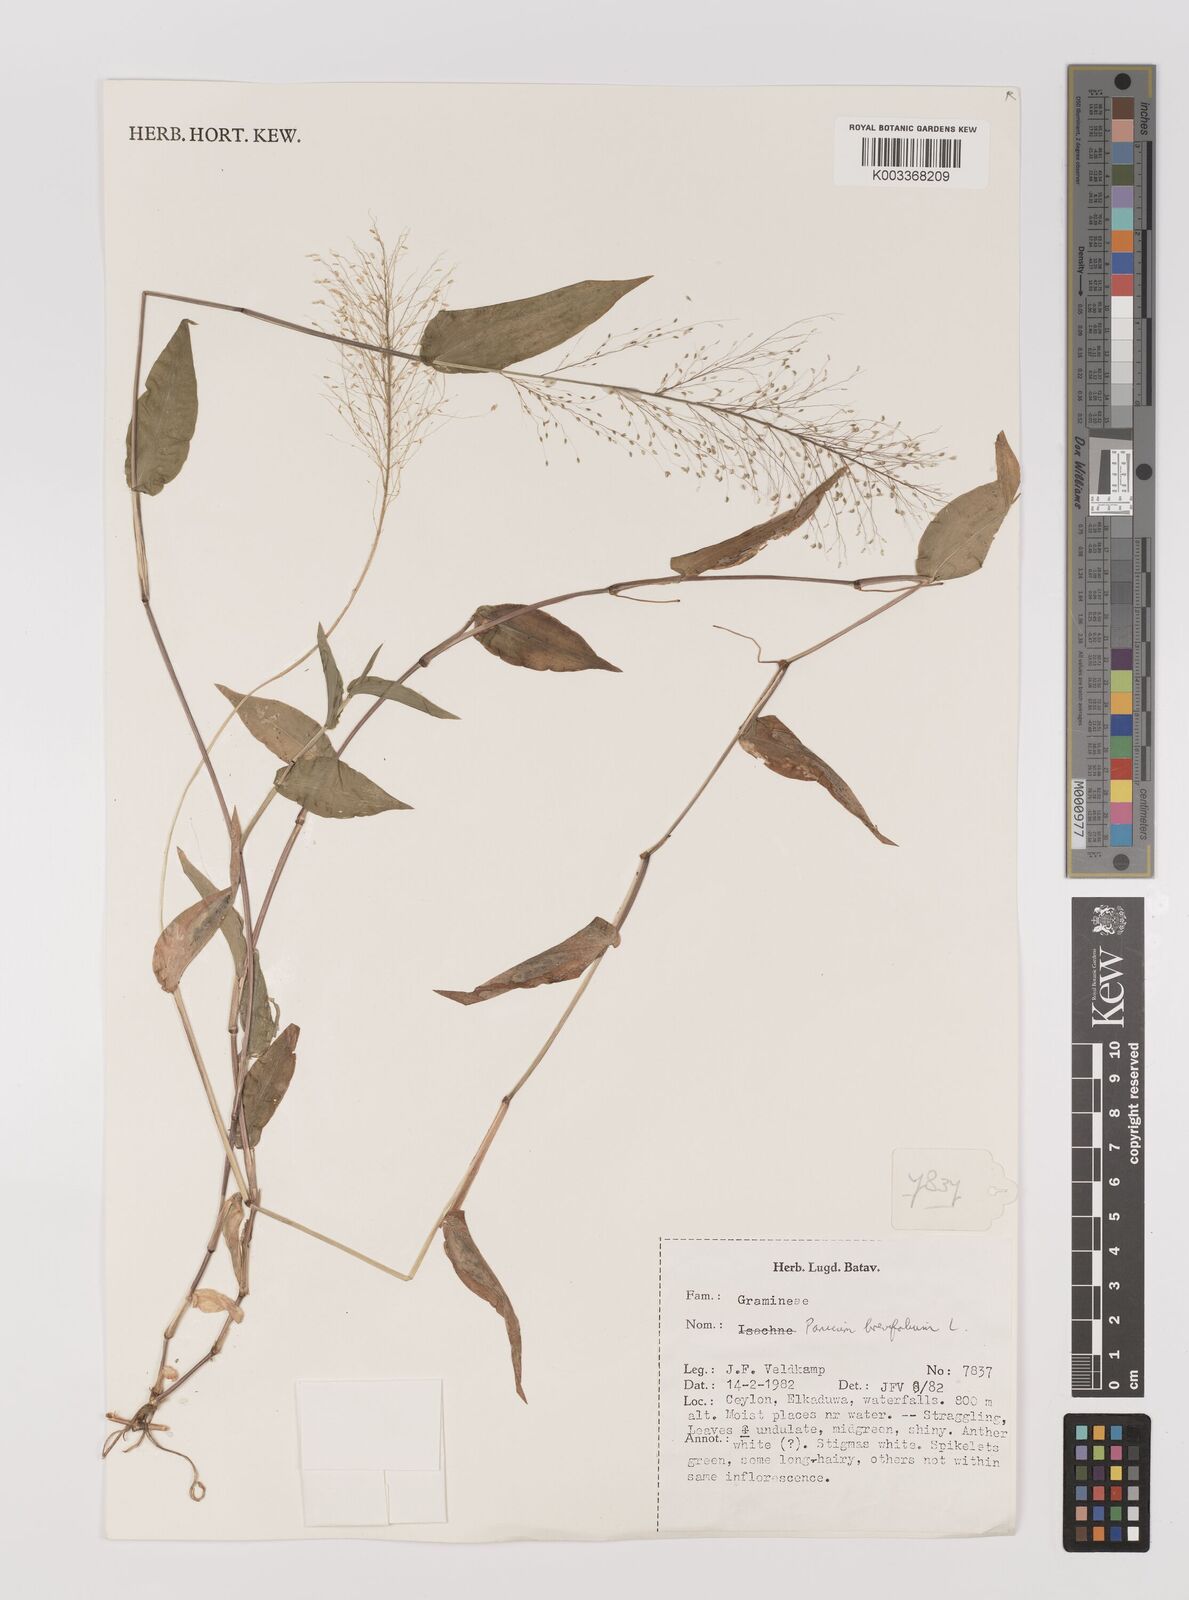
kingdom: Plantae
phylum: Tracheophyta
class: Liliopsida
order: Poales
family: Poaceae
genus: Panicum
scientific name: Panicum brevifolium
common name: Shortleaf panic grass
